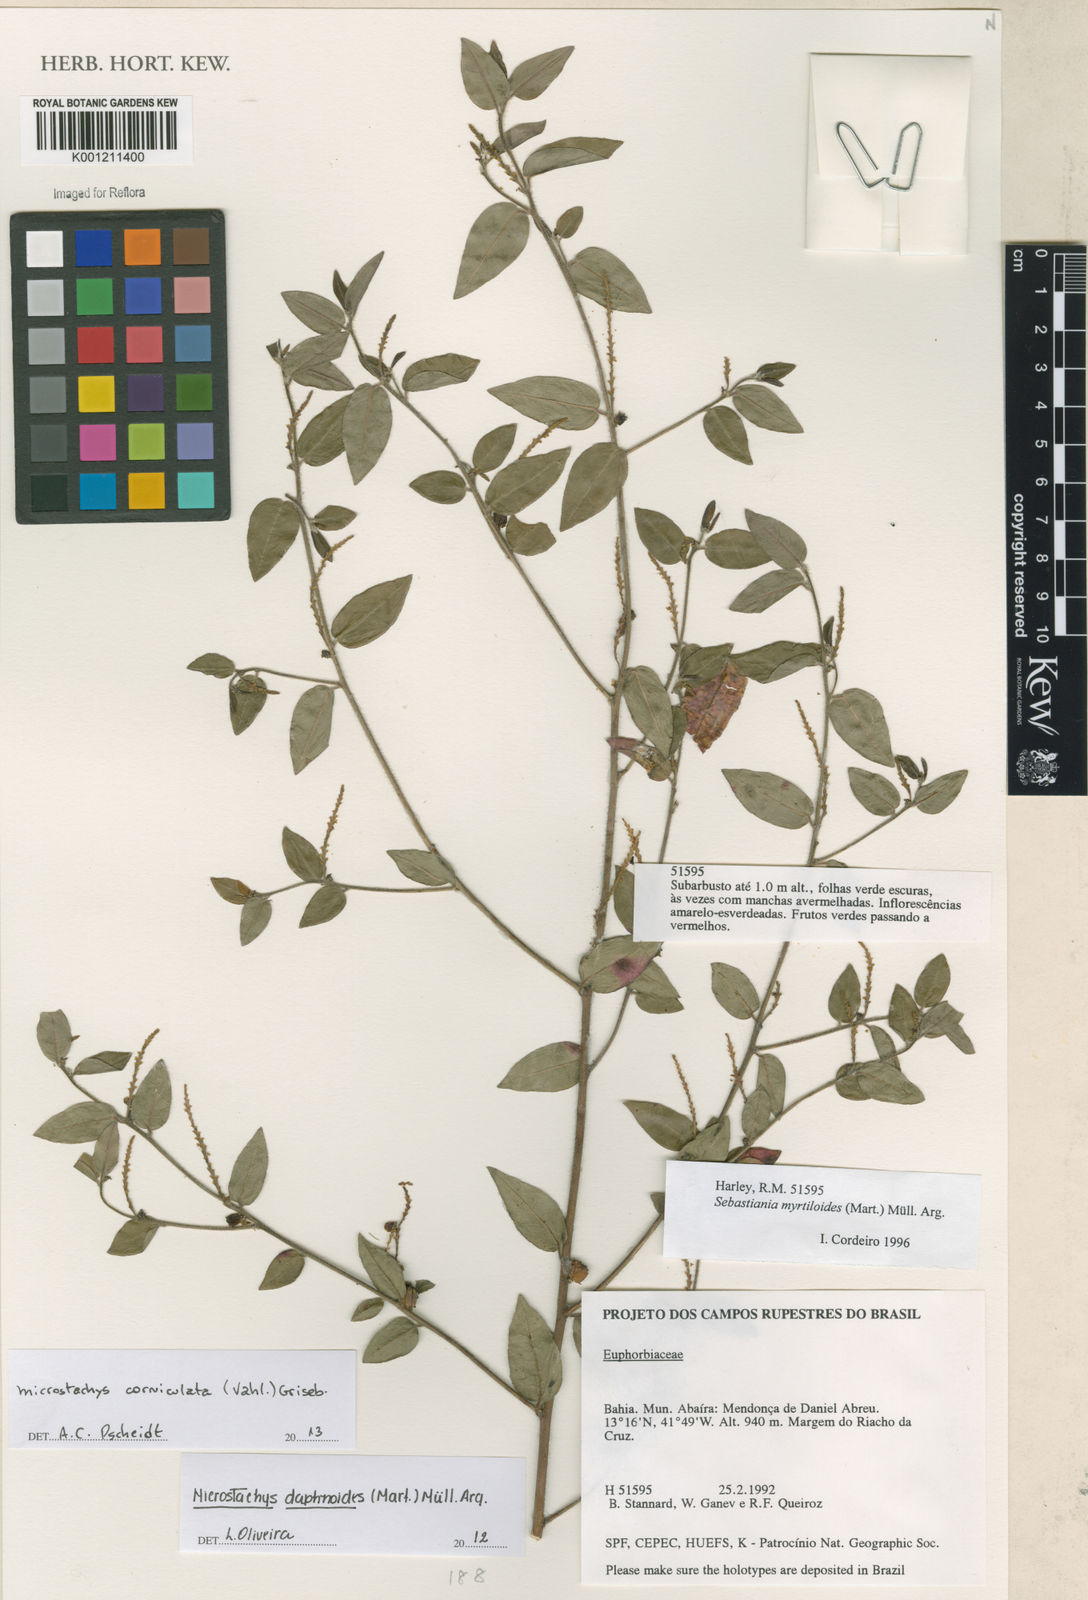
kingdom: Plantae
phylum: Tracheophyta
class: Magnoliopsida
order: Malpighiales
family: Euphorbiaceae
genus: Microstachys
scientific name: Microstachys corniculata
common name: Hato tejas
